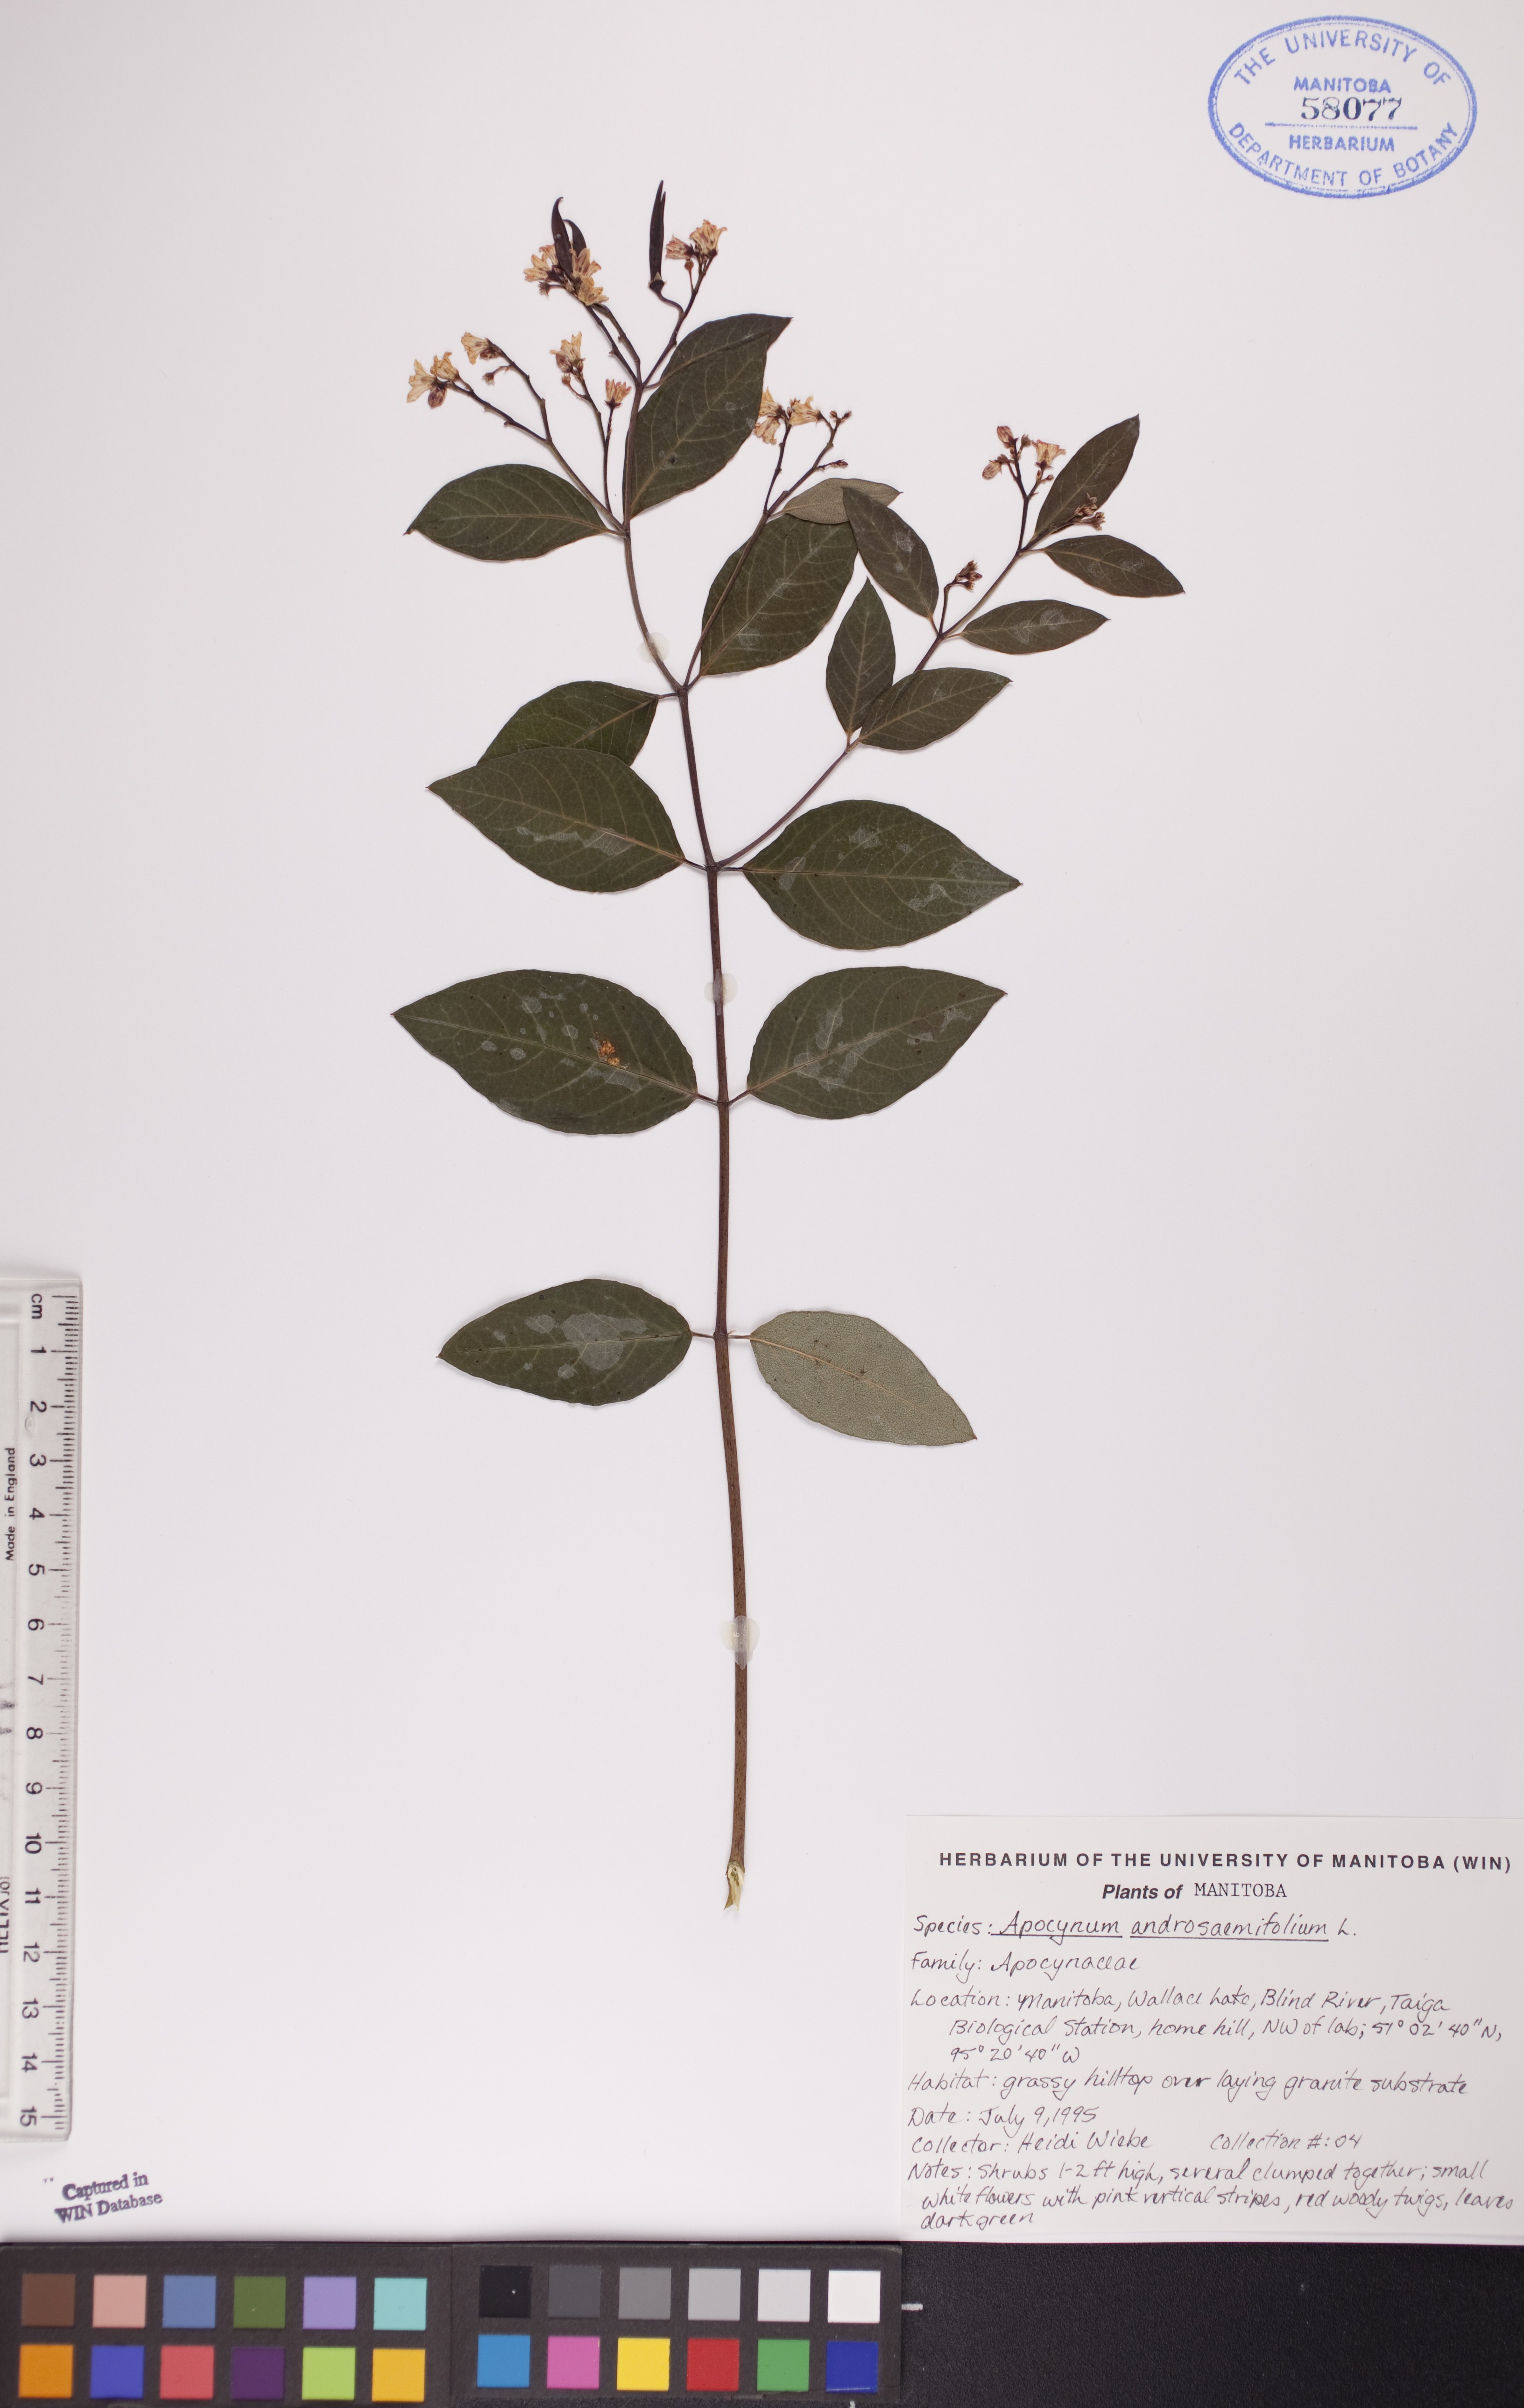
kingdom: Plantae
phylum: Tracheophyta
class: Magnoliopsida
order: Gentianales
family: Apocynaceae
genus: Apocynum
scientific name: Apocynum androsaemifolium
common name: Spreading dogbane
